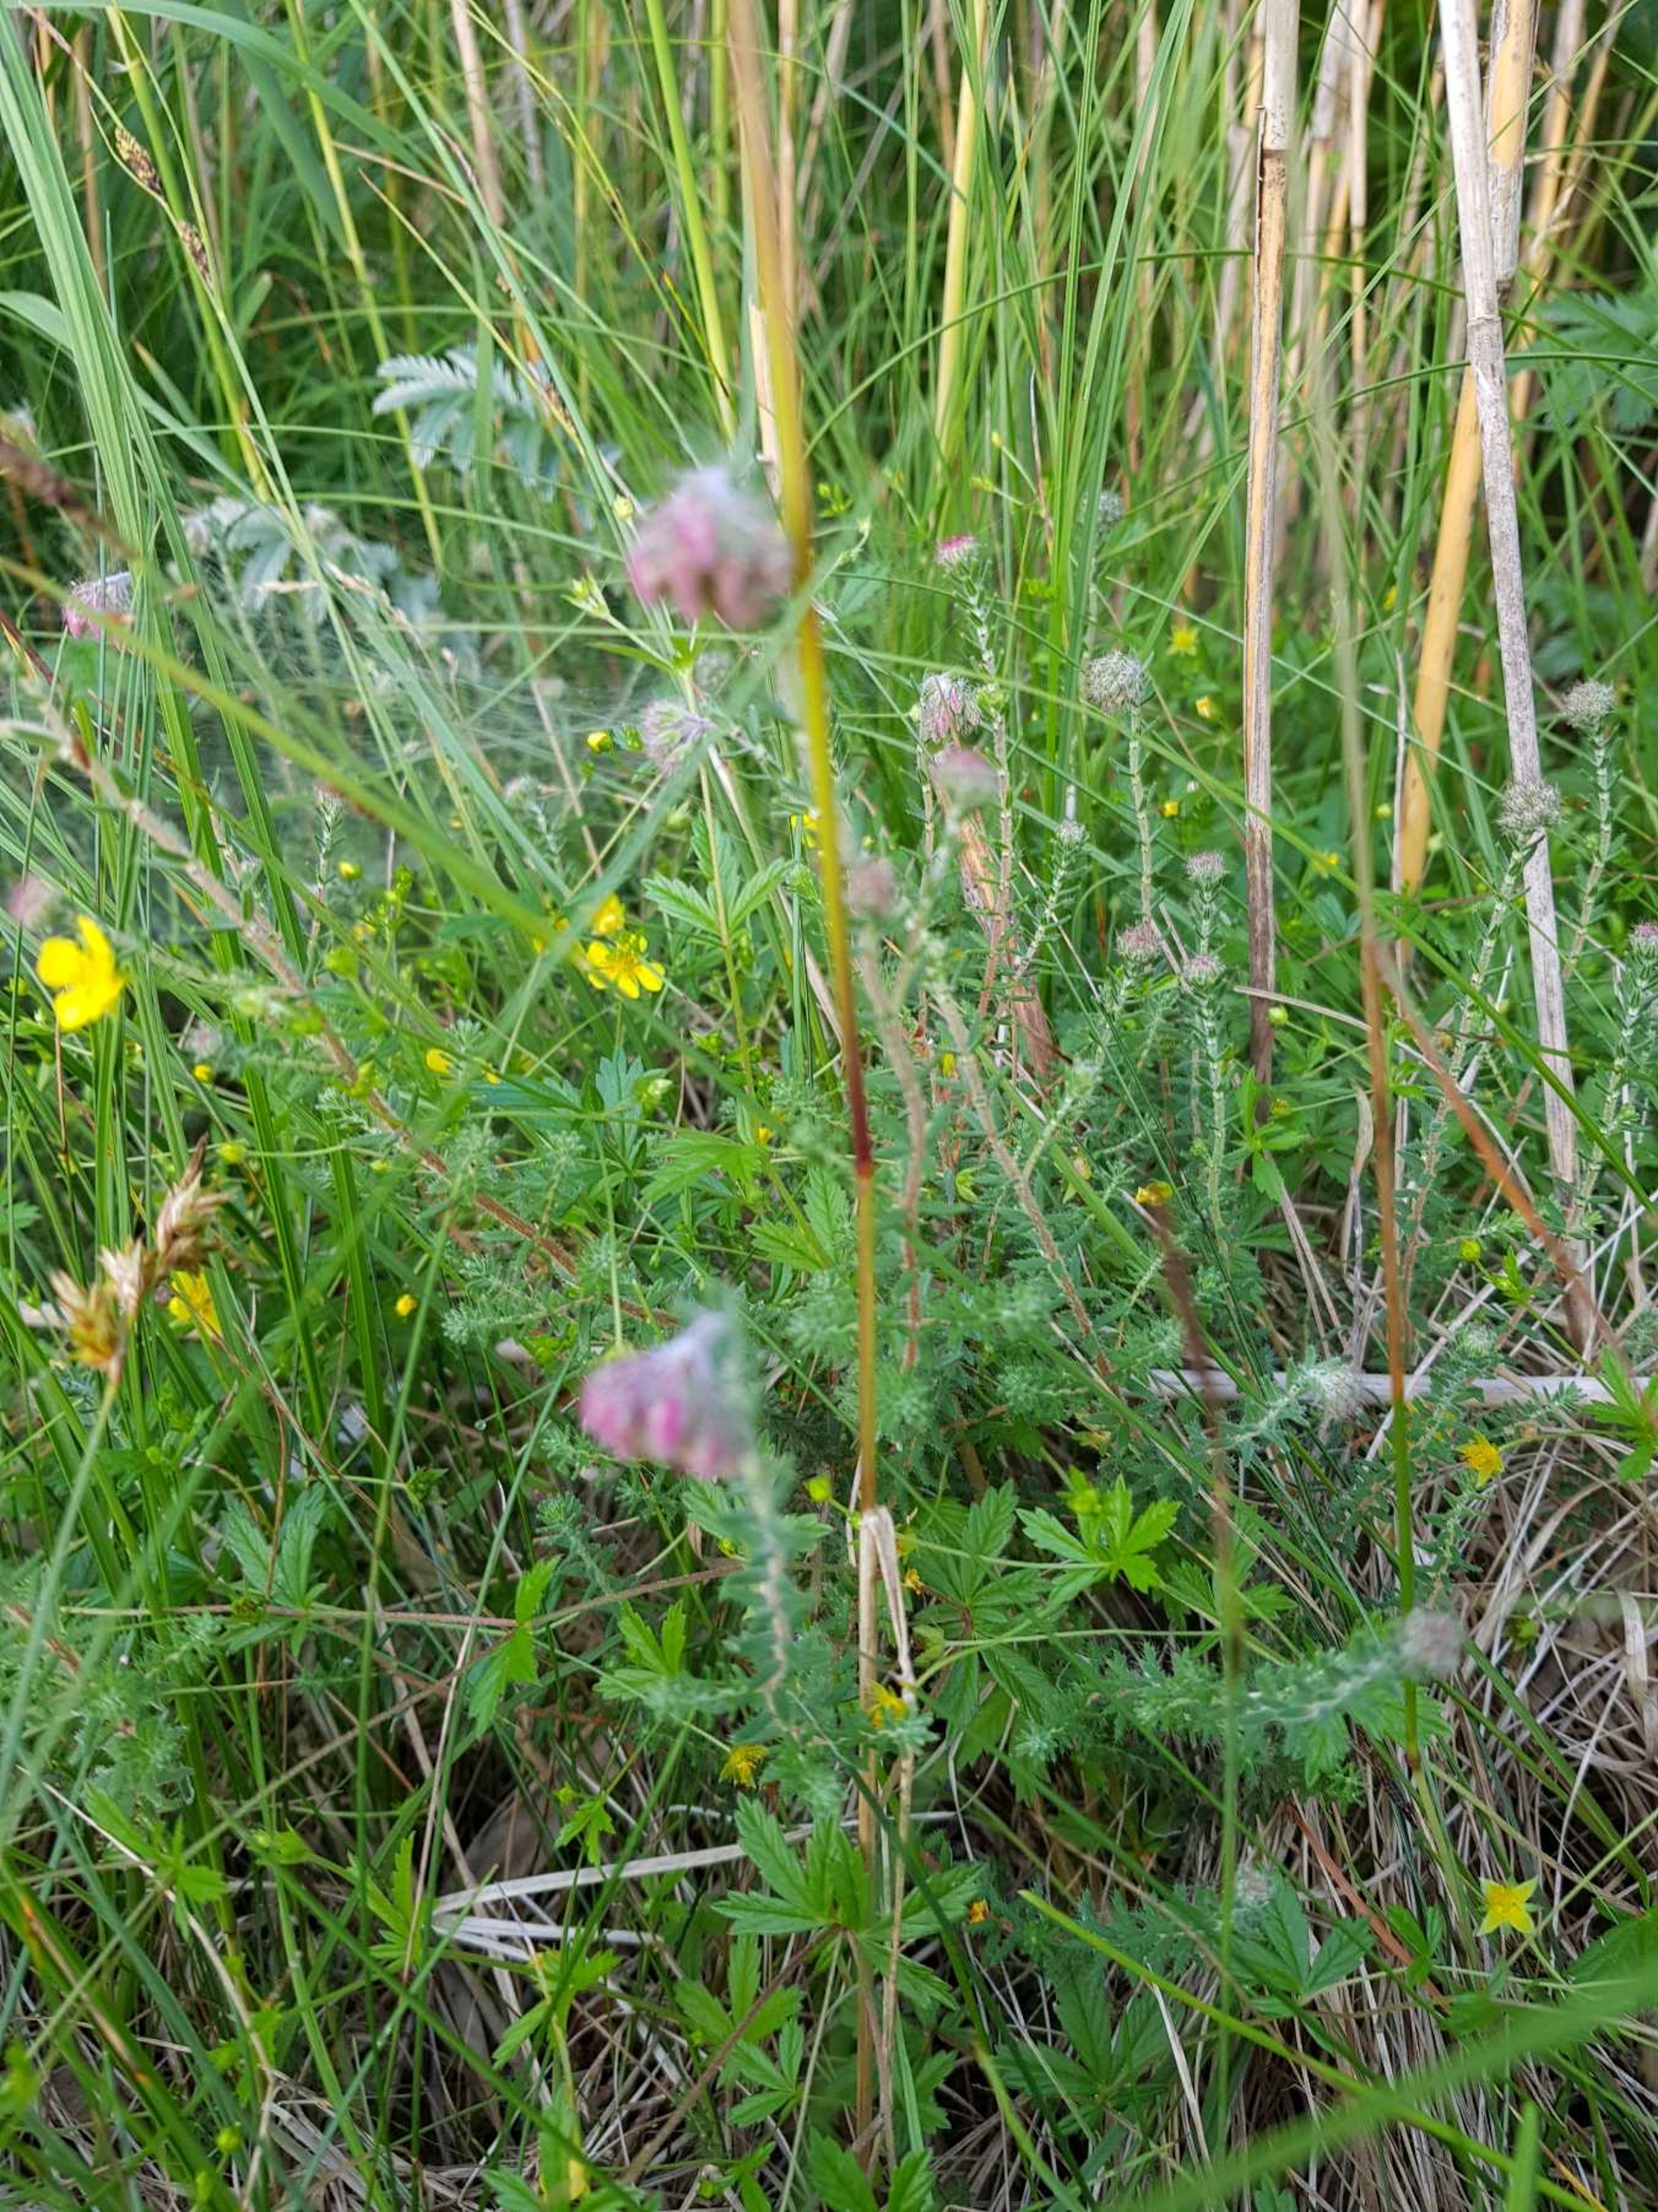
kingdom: Plantae
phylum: Tracheophyta
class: Magnoliopsida
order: Ericales
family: Ericaceae
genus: Erica
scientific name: Erica tetralix
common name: Klokkelyng
